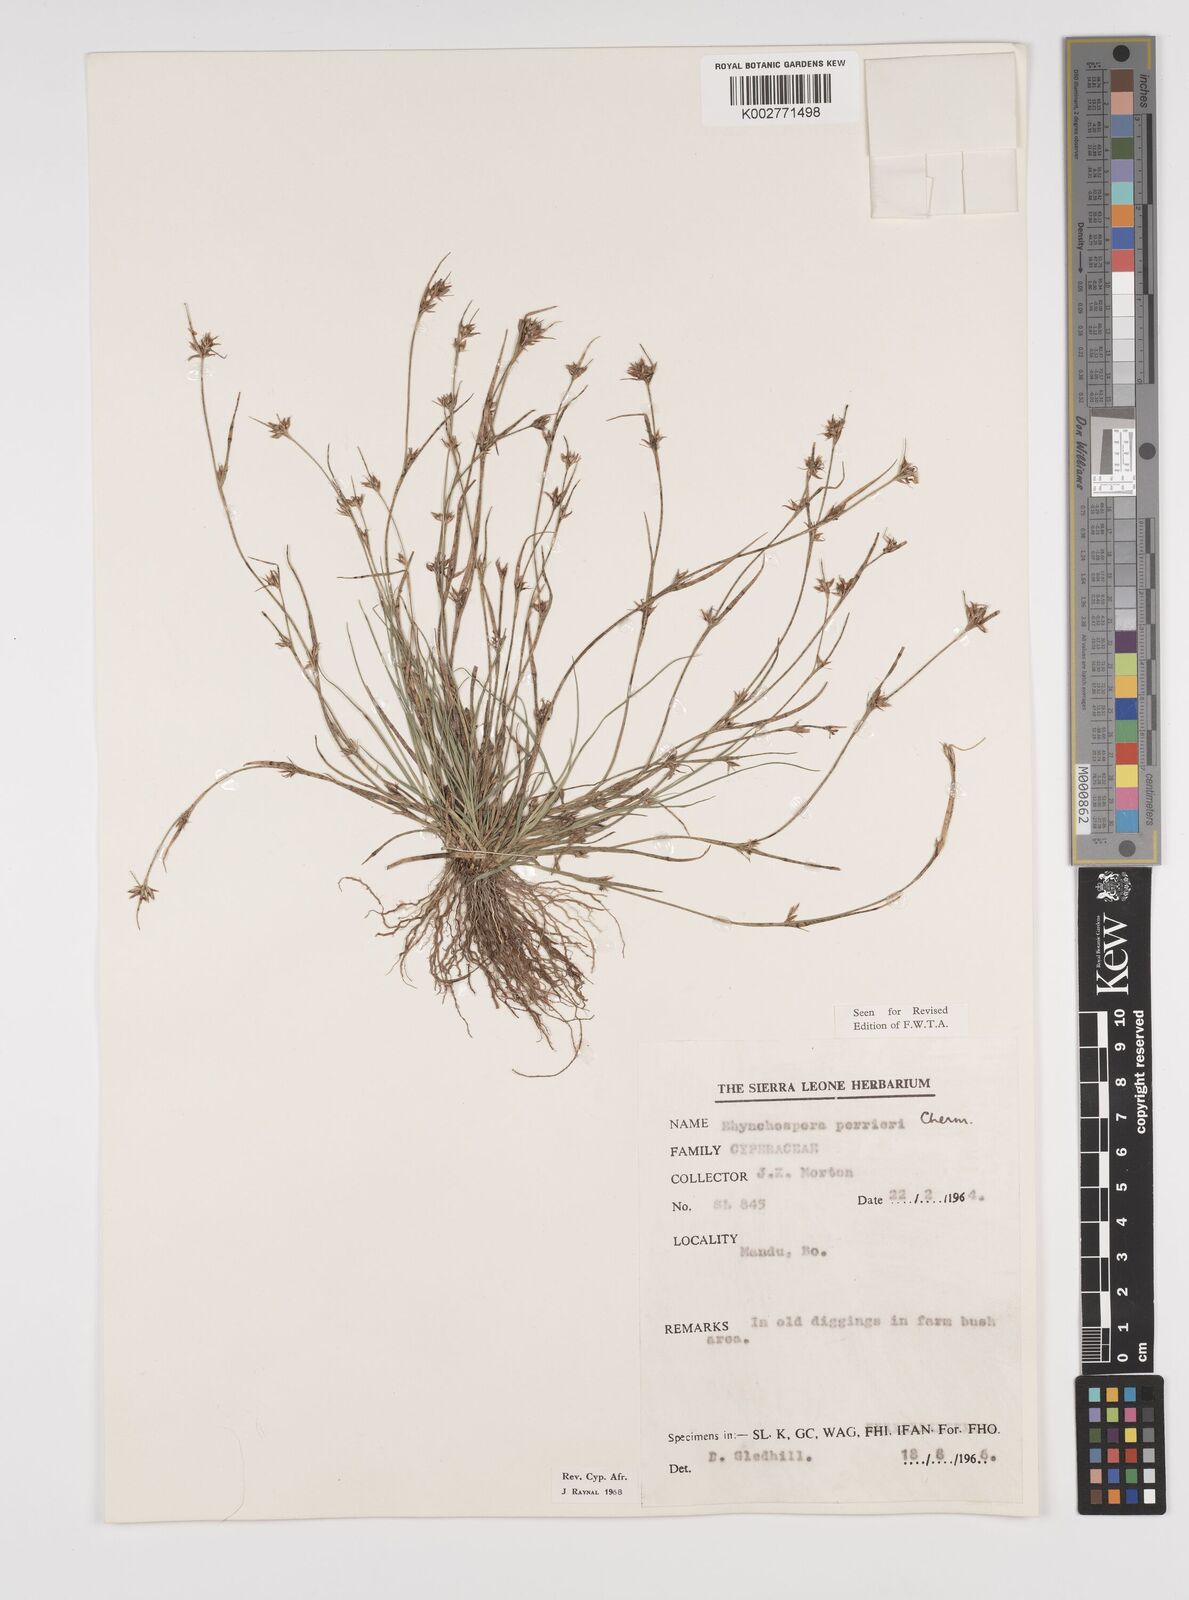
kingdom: Plantae
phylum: Tracheophyta
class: Liliopsida
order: Poales
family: Cyperaceae
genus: Rhynchospora
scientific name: Rhynchospora perrieri
